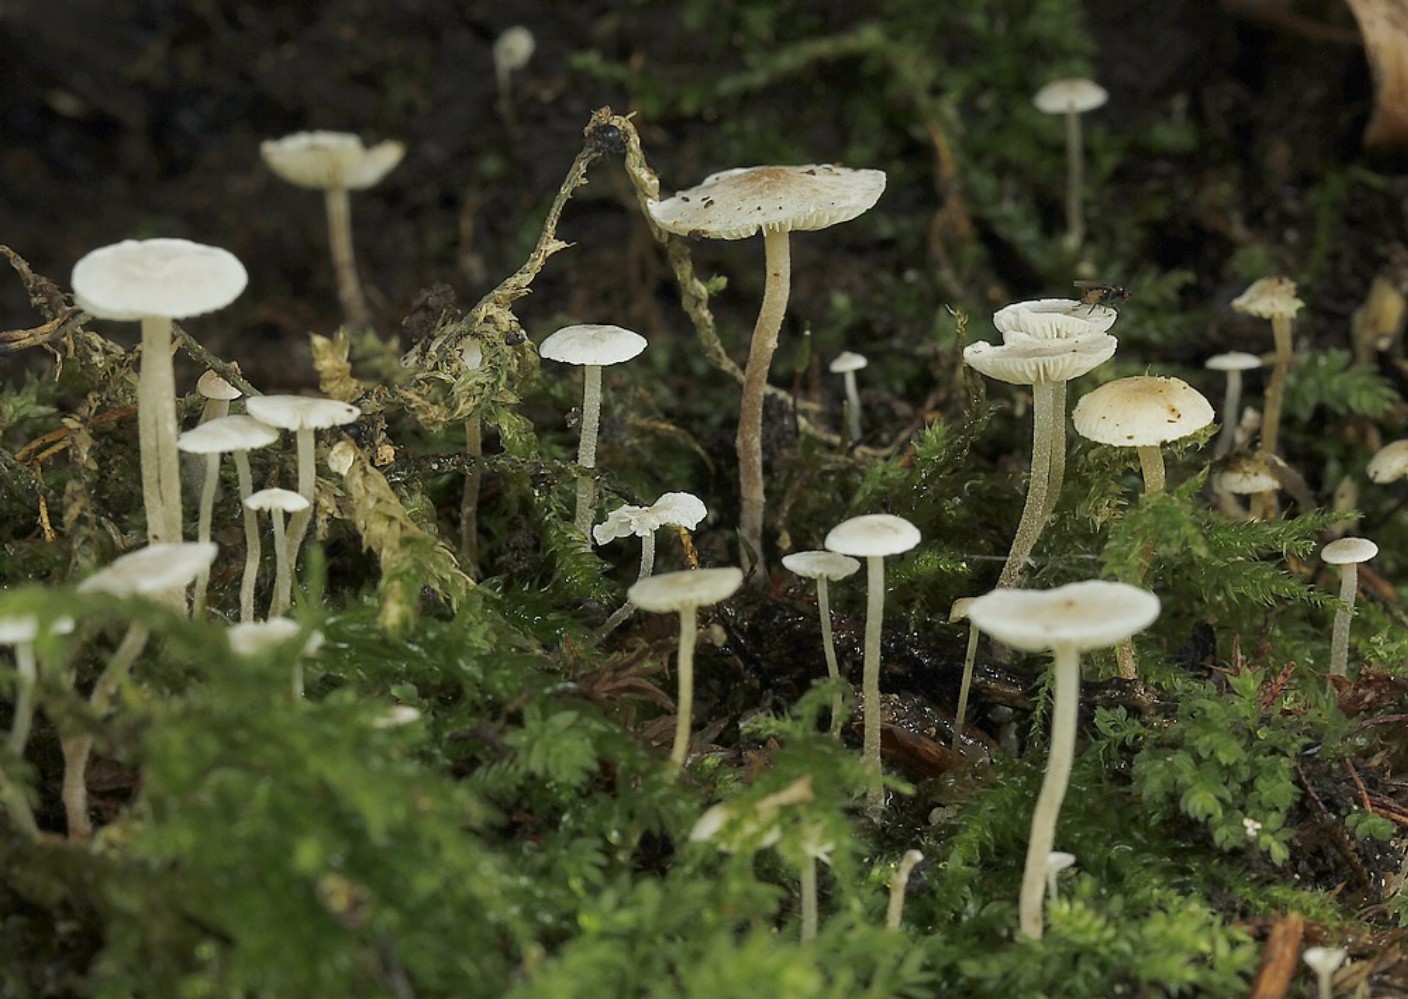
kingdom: Fungi
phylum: Basidiomycota
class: Agaricomycetes
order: Agaricales
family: Tricholomataceae
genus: Collybia
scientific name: Collybia
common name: lighat
